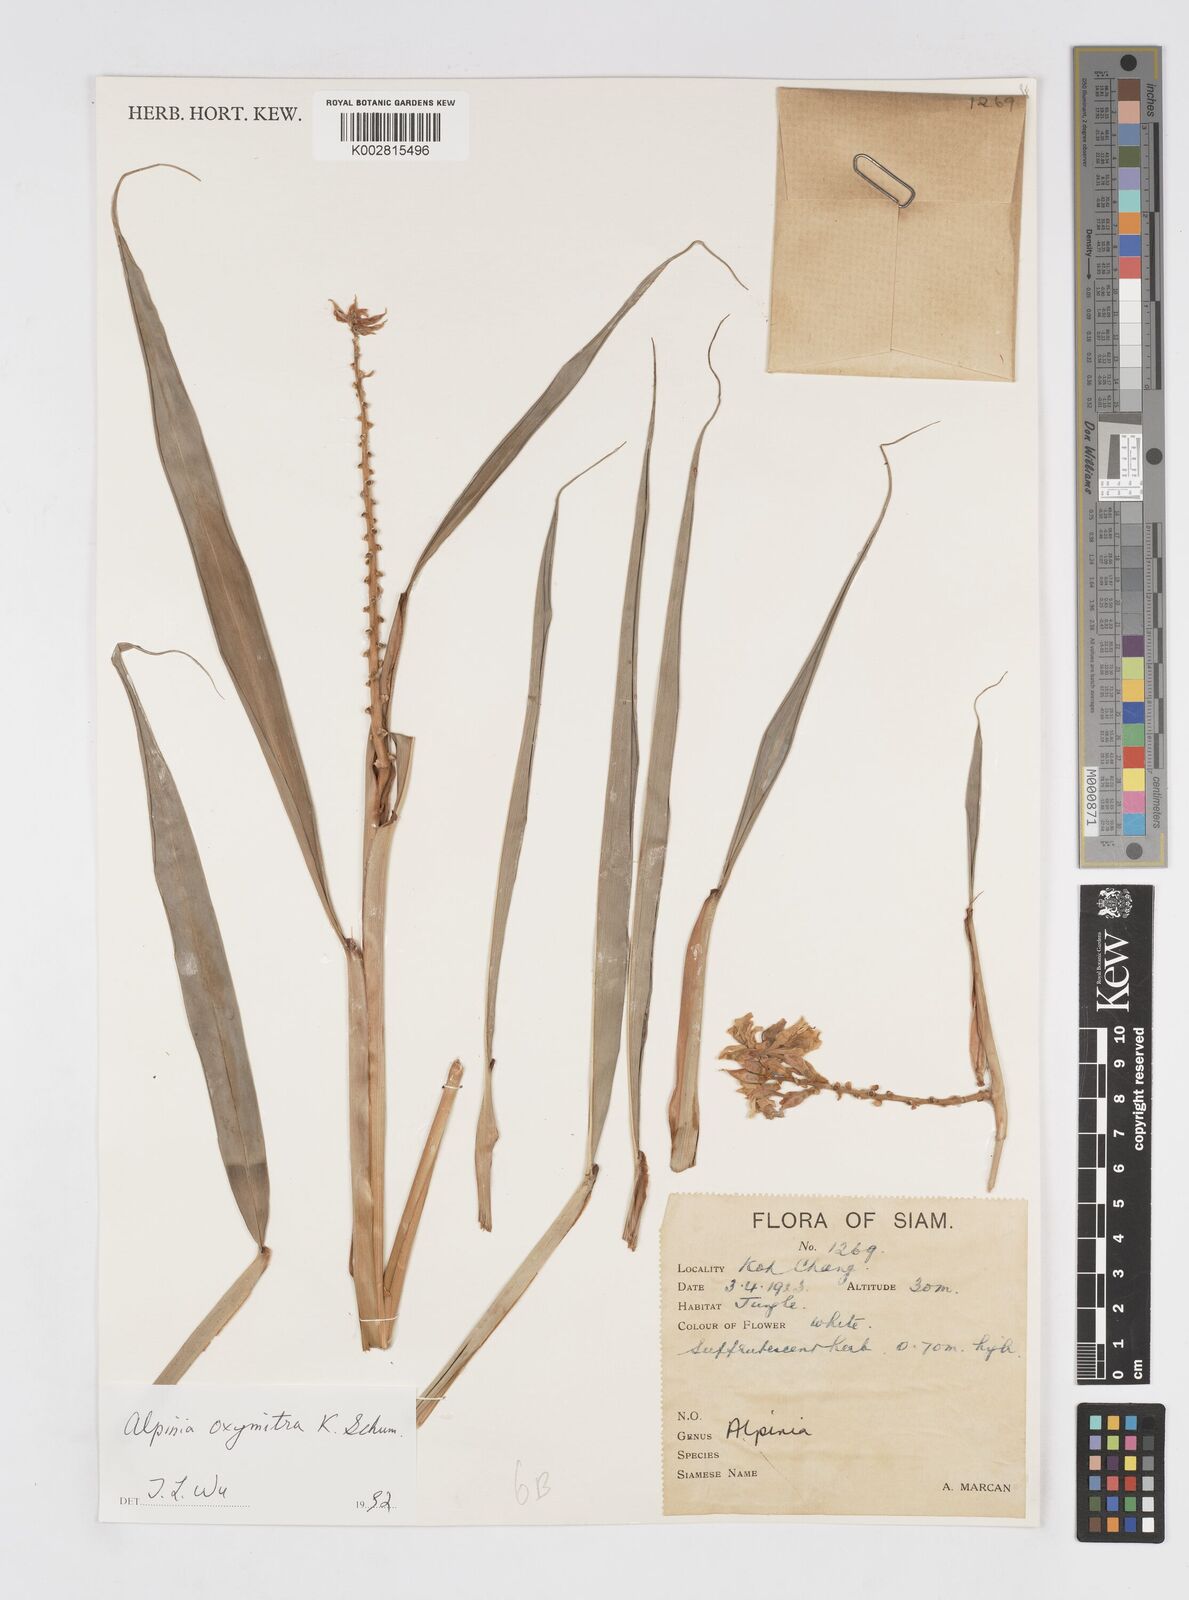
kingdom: Plantae
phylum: Tracheophyta
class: Liliopsida
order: Zingiberales
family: Zingiberaceae
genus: Alpinia
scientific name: Alpinia oxymitra
